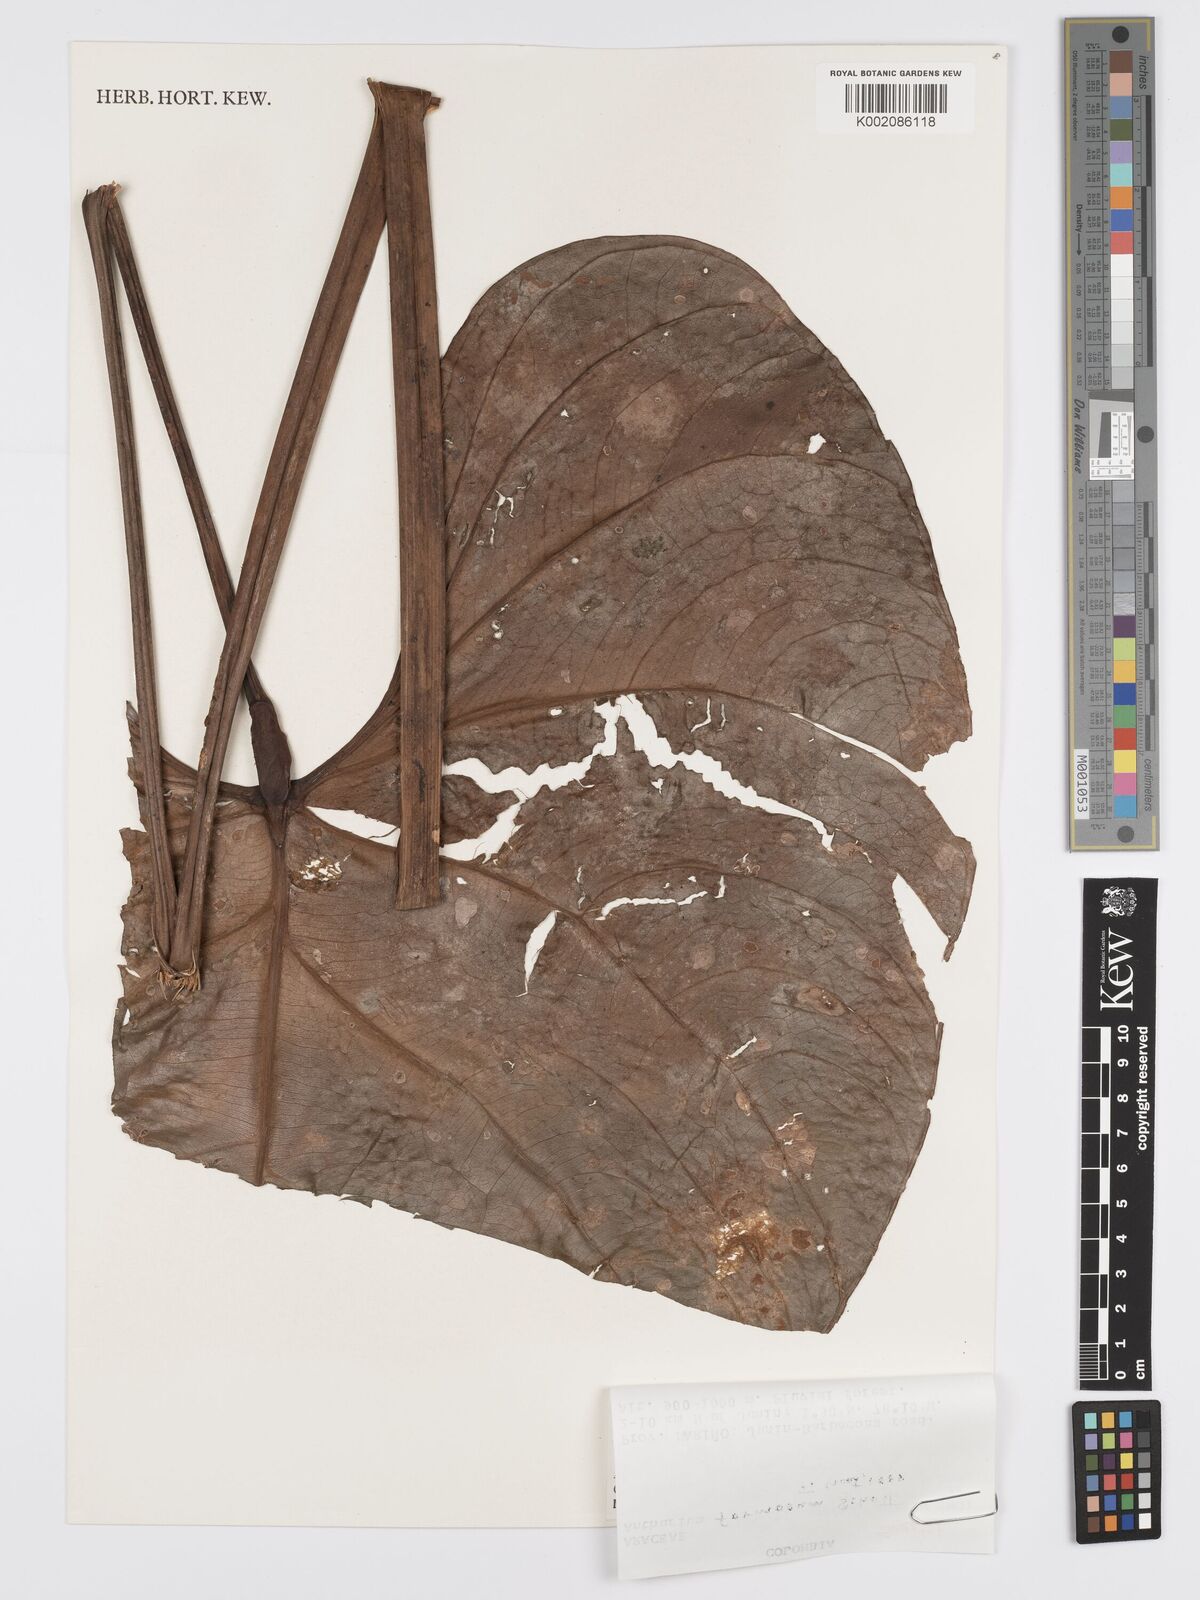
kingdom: Plantae
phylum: Tracheophyta
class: Liliopsida
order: Alismatales
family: Araceae
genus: Anthurium
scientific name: Anthurium formosum
